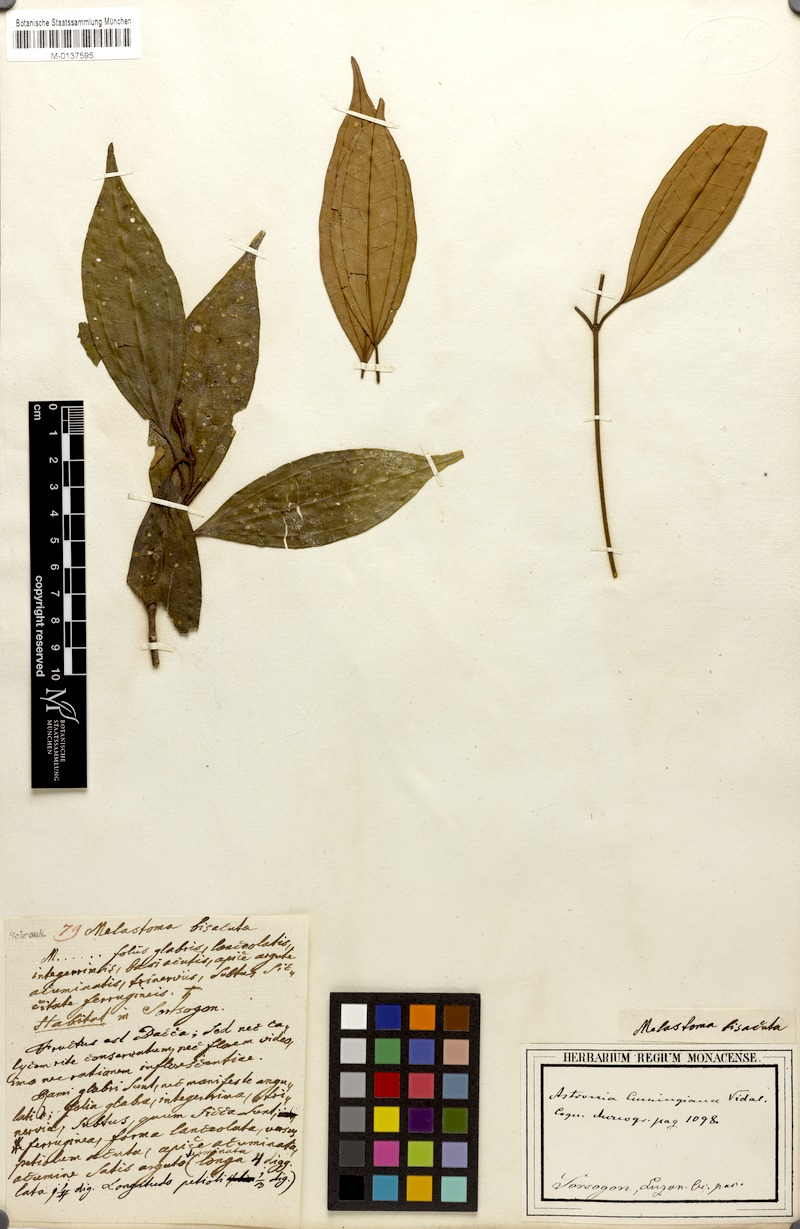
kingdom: Plantae
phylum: Tracheophyta
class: Magnoliopsida
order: Myrtales
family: Melastomataceae
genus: Astronia
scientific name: Astronia cumingiana
